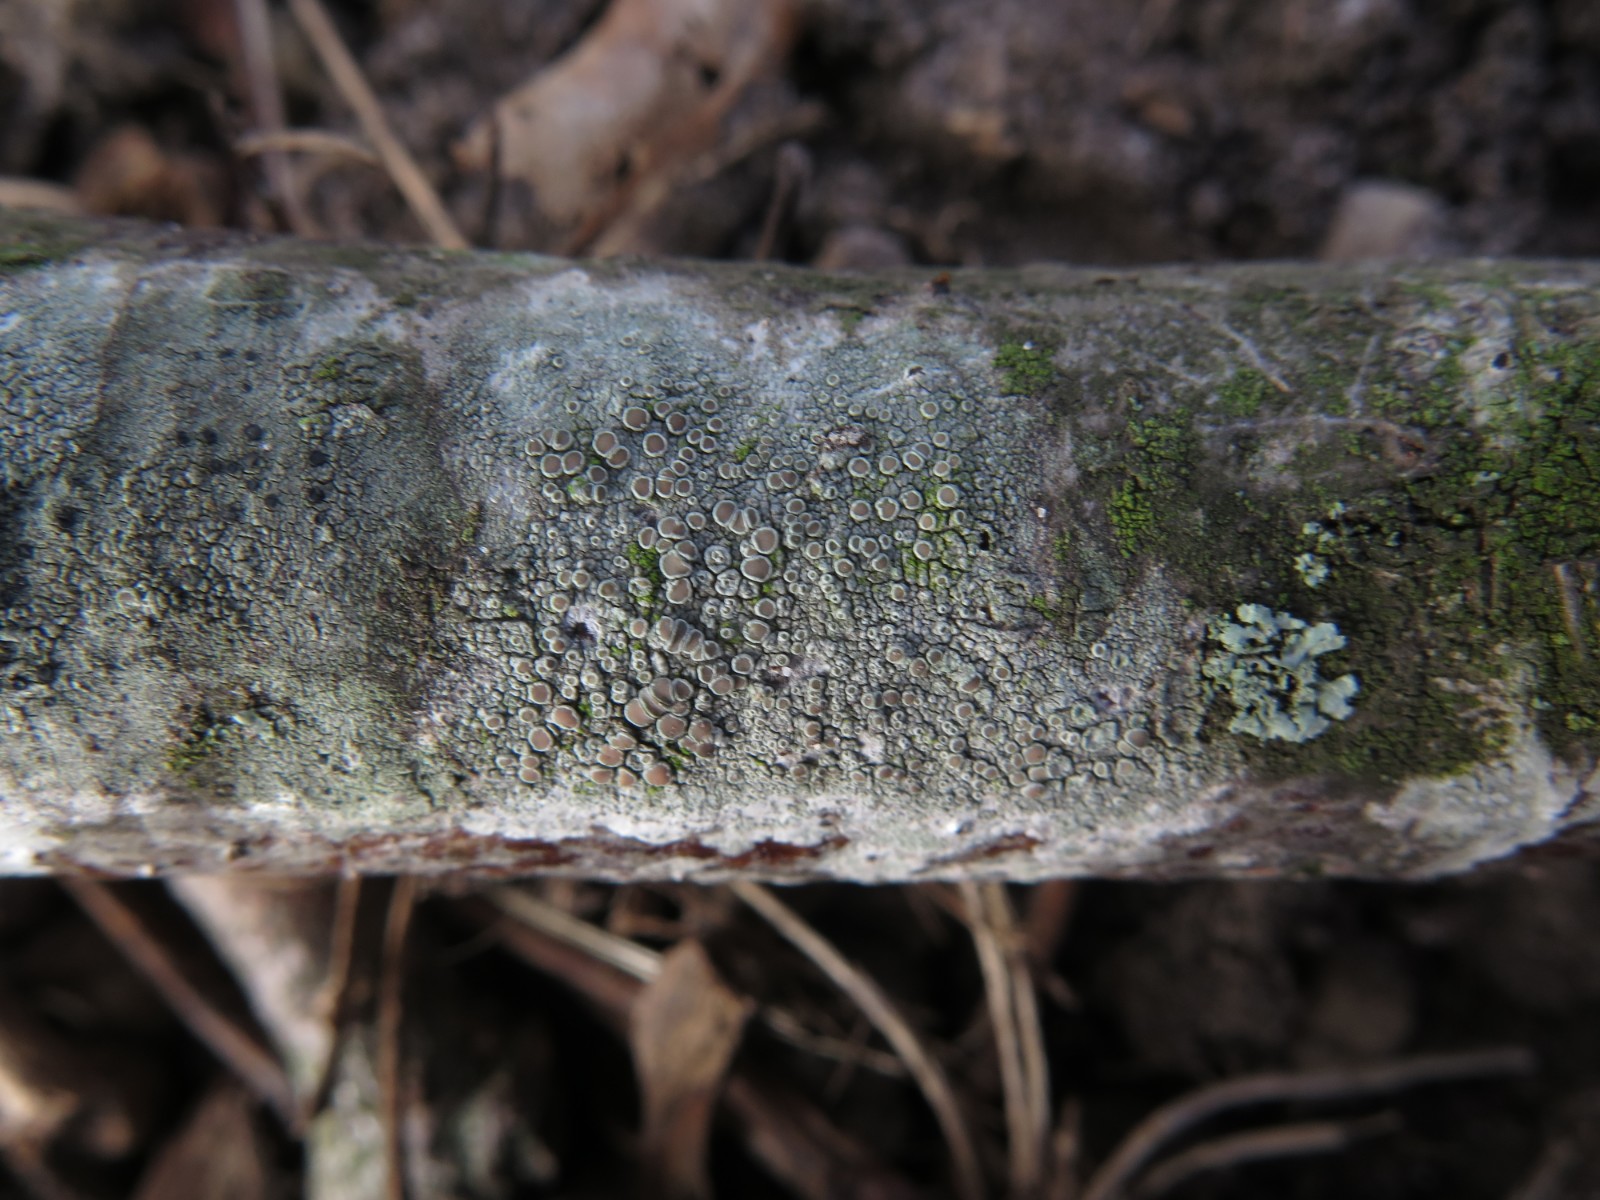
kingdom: Fungi
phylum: Ascomycota
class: Lecanoromycetes
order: Lecanorales
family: Lecanoraceae
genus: Lecanora
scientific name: Lecanora chlarotera
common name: brun kantskivelav
